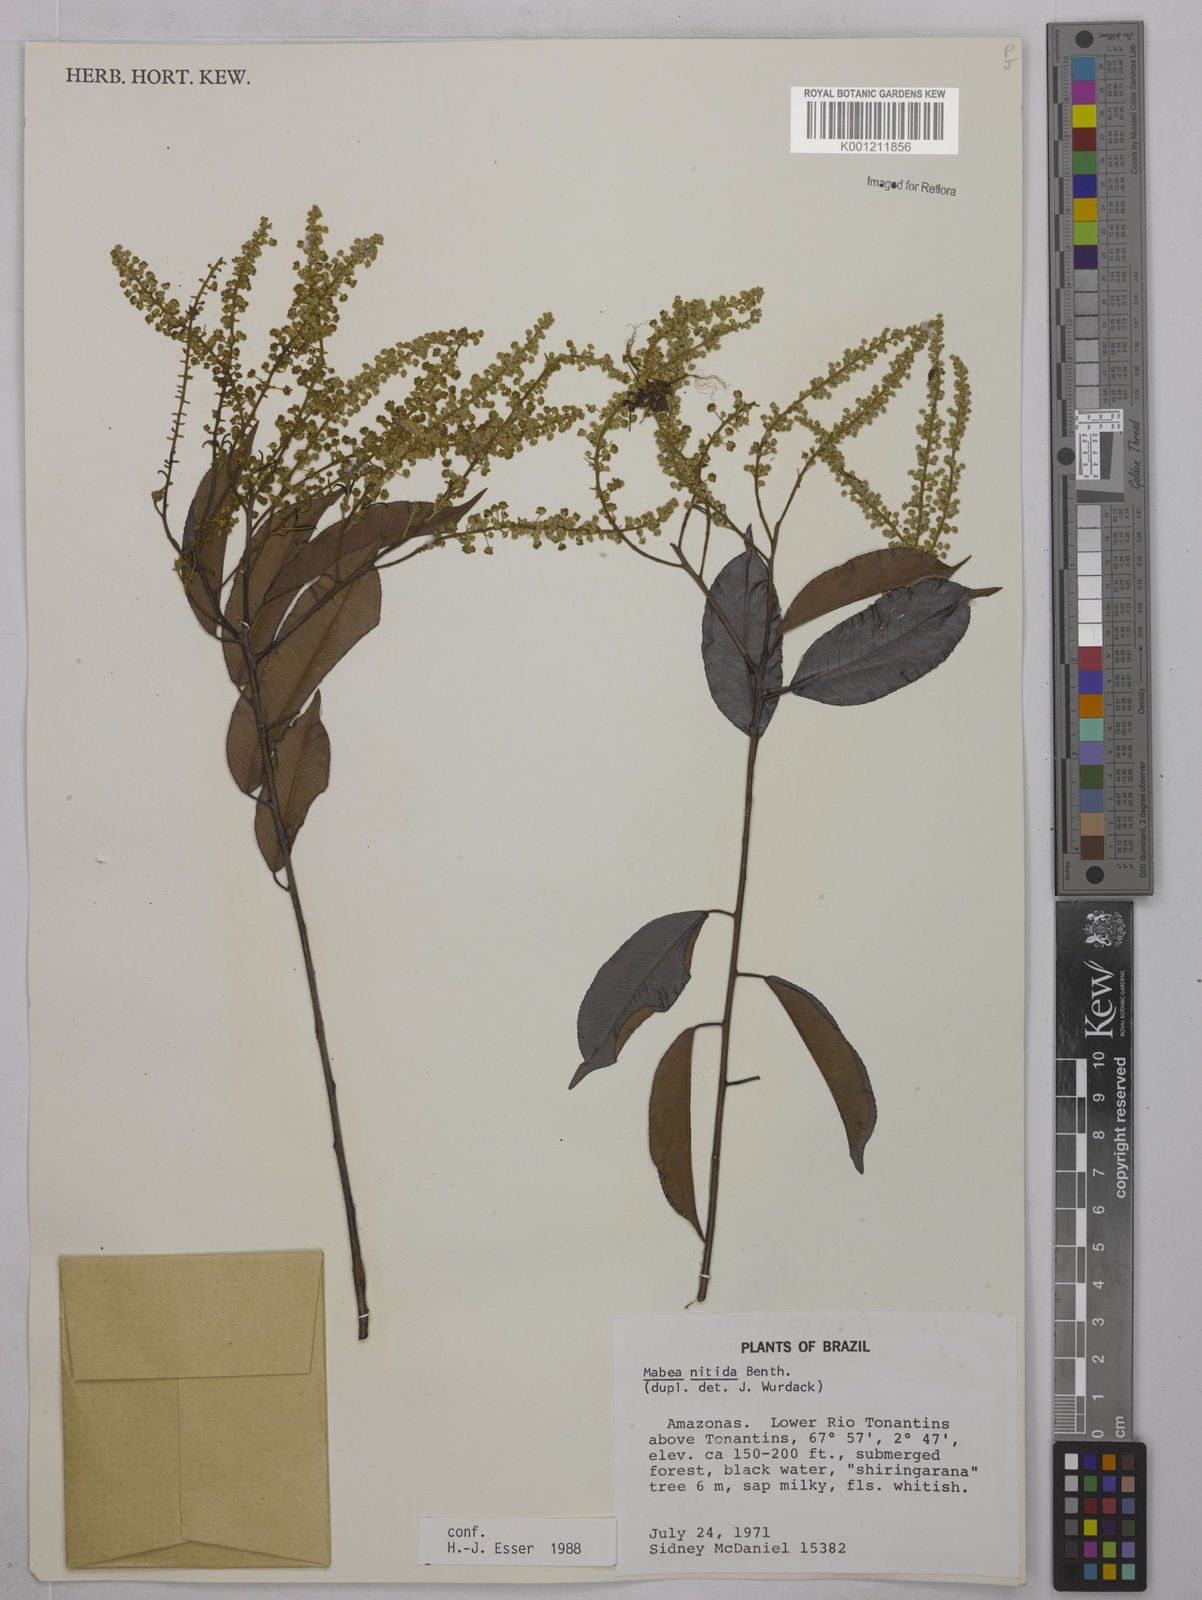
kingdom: Plantae
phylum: Tracheophyta
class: Magnoliopsida
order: Malpighiales
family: Euphorbiaceae
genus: Mabea
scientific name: Mabea nitida
